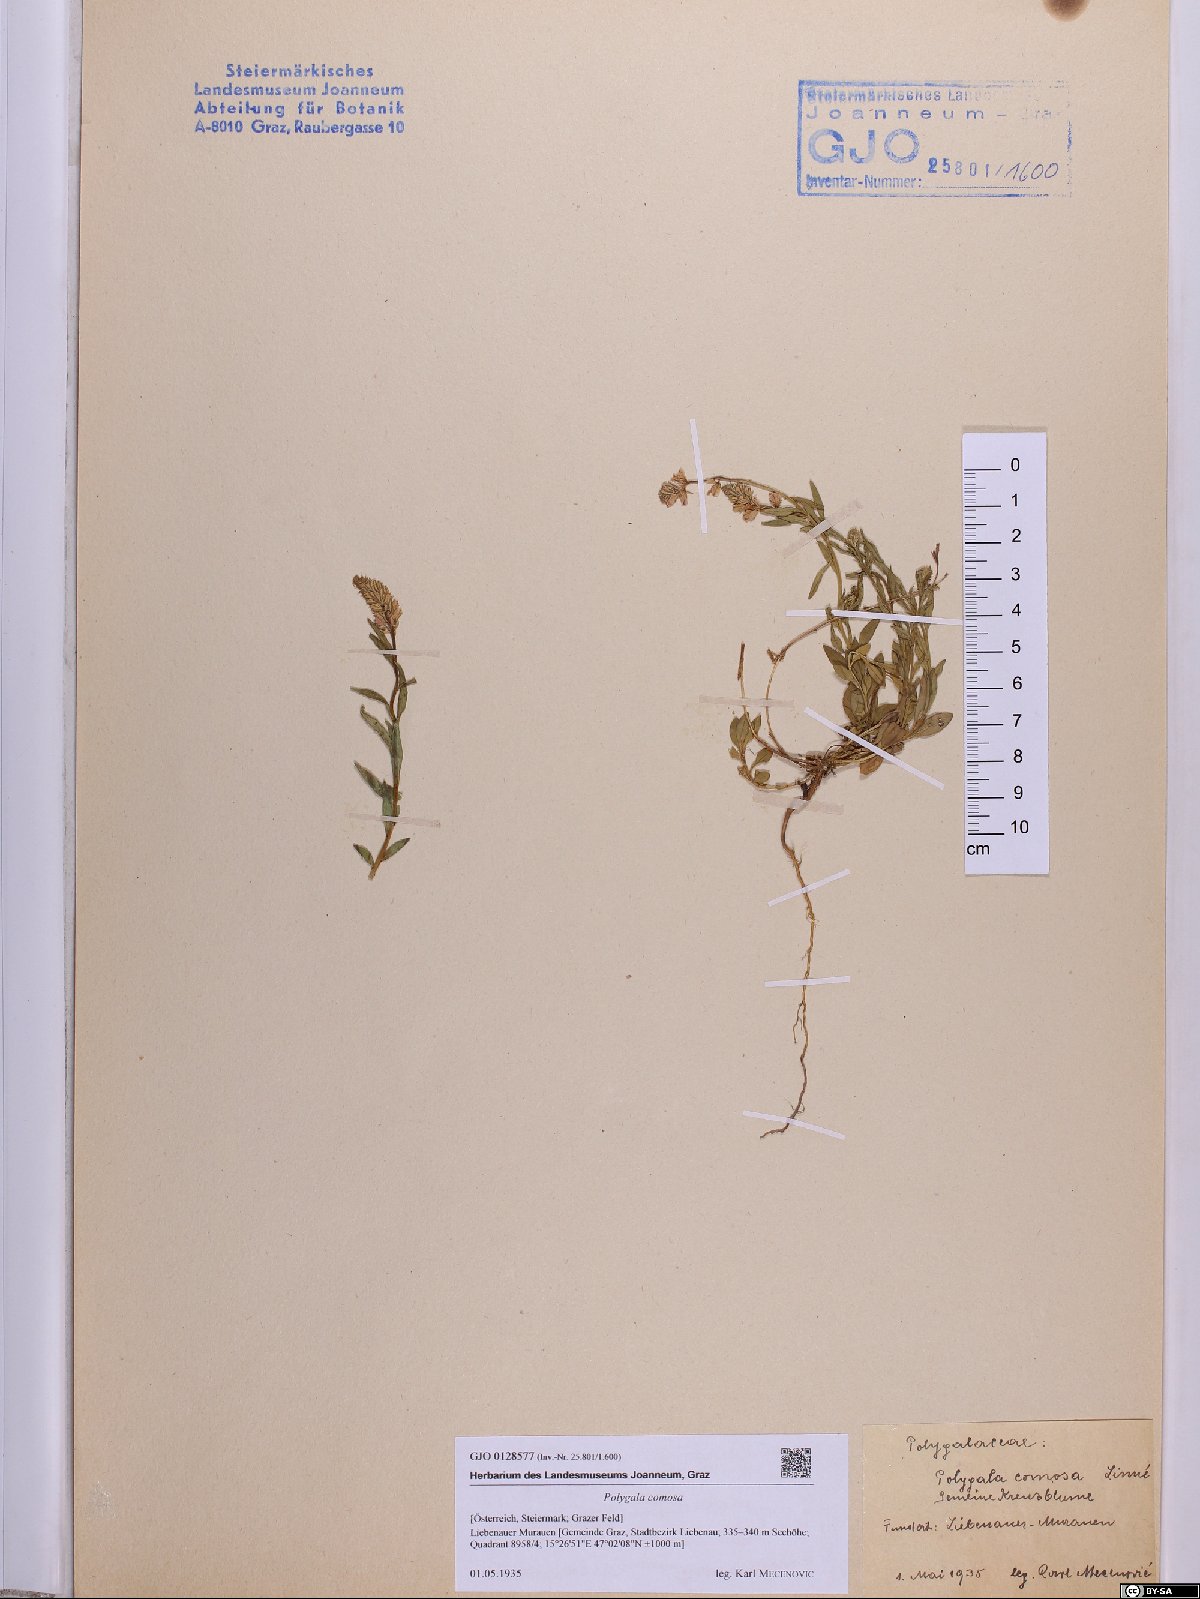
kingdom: Plantae
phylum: Tracheophyta
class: Magnoliopsida
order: Fabales
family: Polygalaceae
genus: Polygala
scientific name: Polygala comosa
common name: Tufted milkwort
